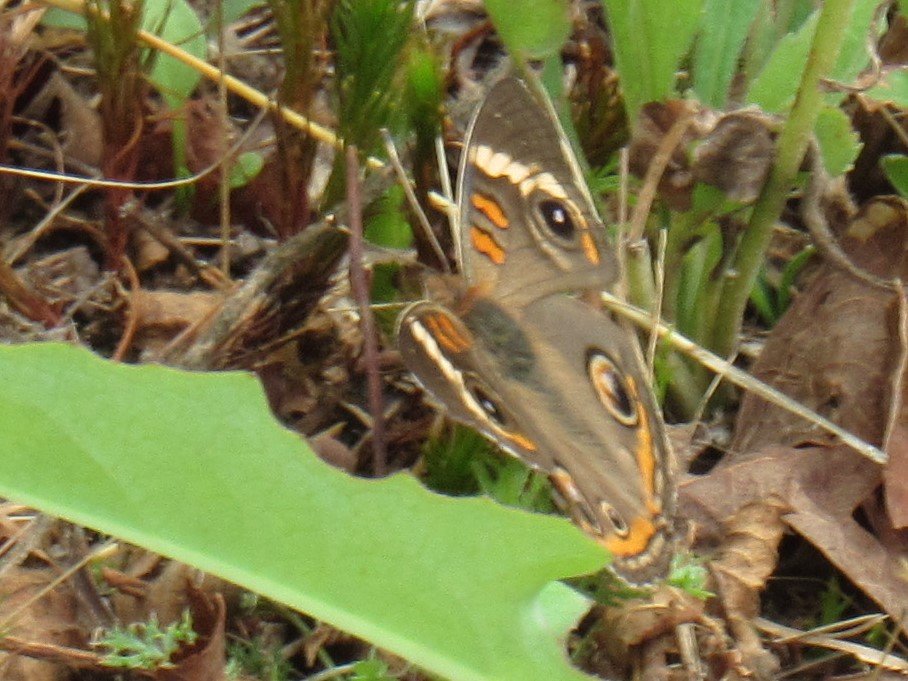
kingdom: Animalia
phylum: Arthropoda
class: Insecta
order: Lepidoptera
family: Nymphalidae
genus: Junonia
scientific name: Junonia coenia
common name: Common Buckeye
